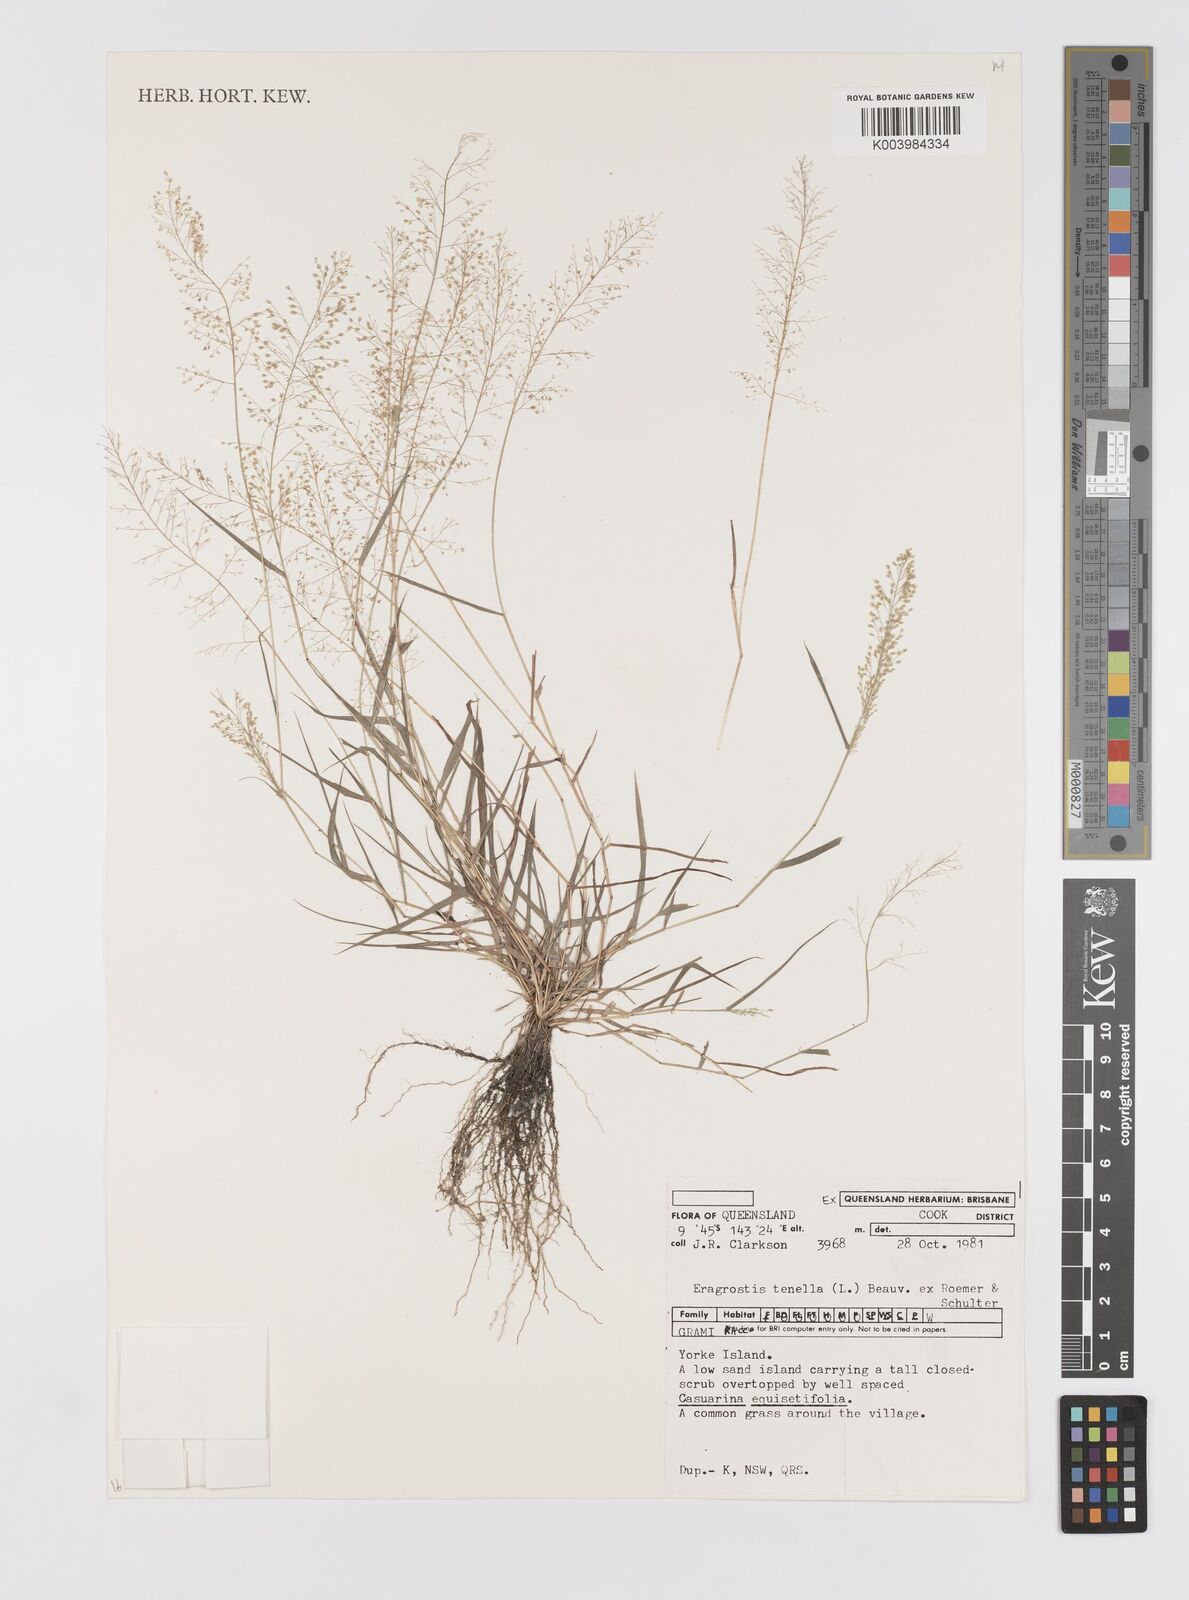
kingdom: Plantae
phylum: Tracheophyta
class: Liliopsida
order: Poales
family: Poaceae
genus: Eragrostis
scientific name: Eragrostis tenella
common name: Japanese lovegrass
